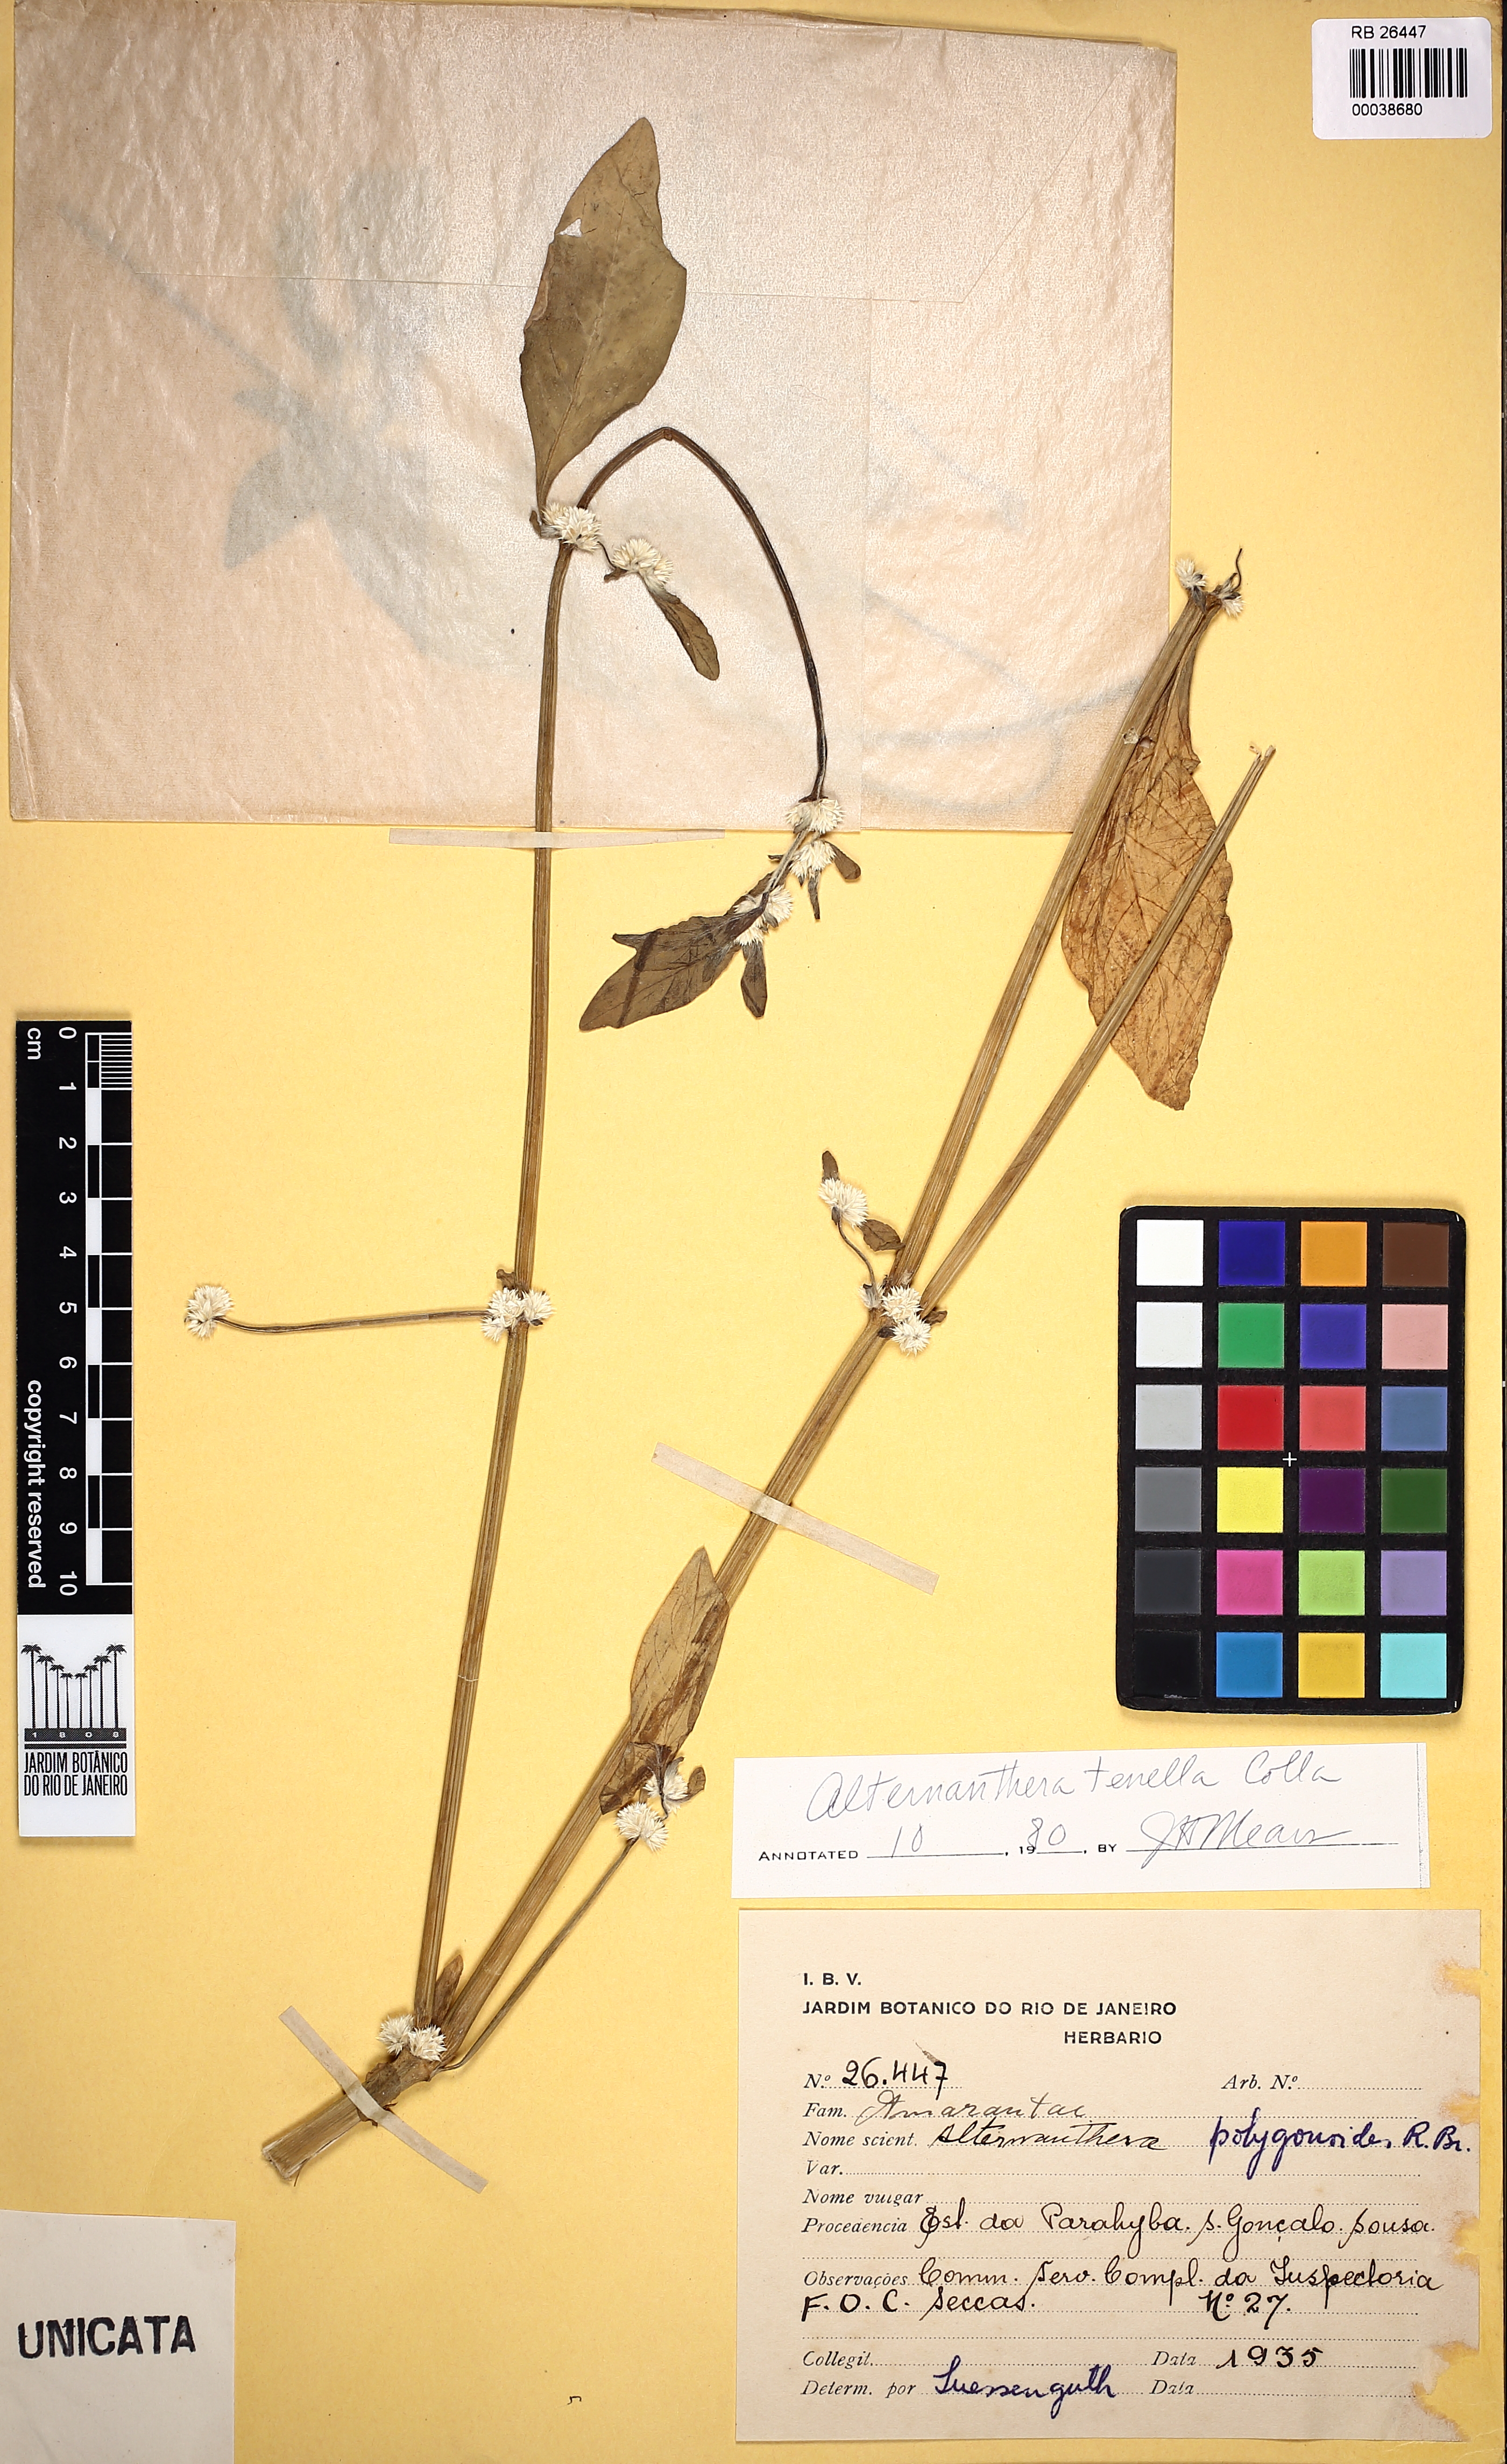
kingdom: Plantae
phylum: Tracheophyta
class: Magnoliopsida
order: Caryophyllales
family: Amaranthaceae
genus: Alternanthera
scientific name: Alternanthera ficoidea
